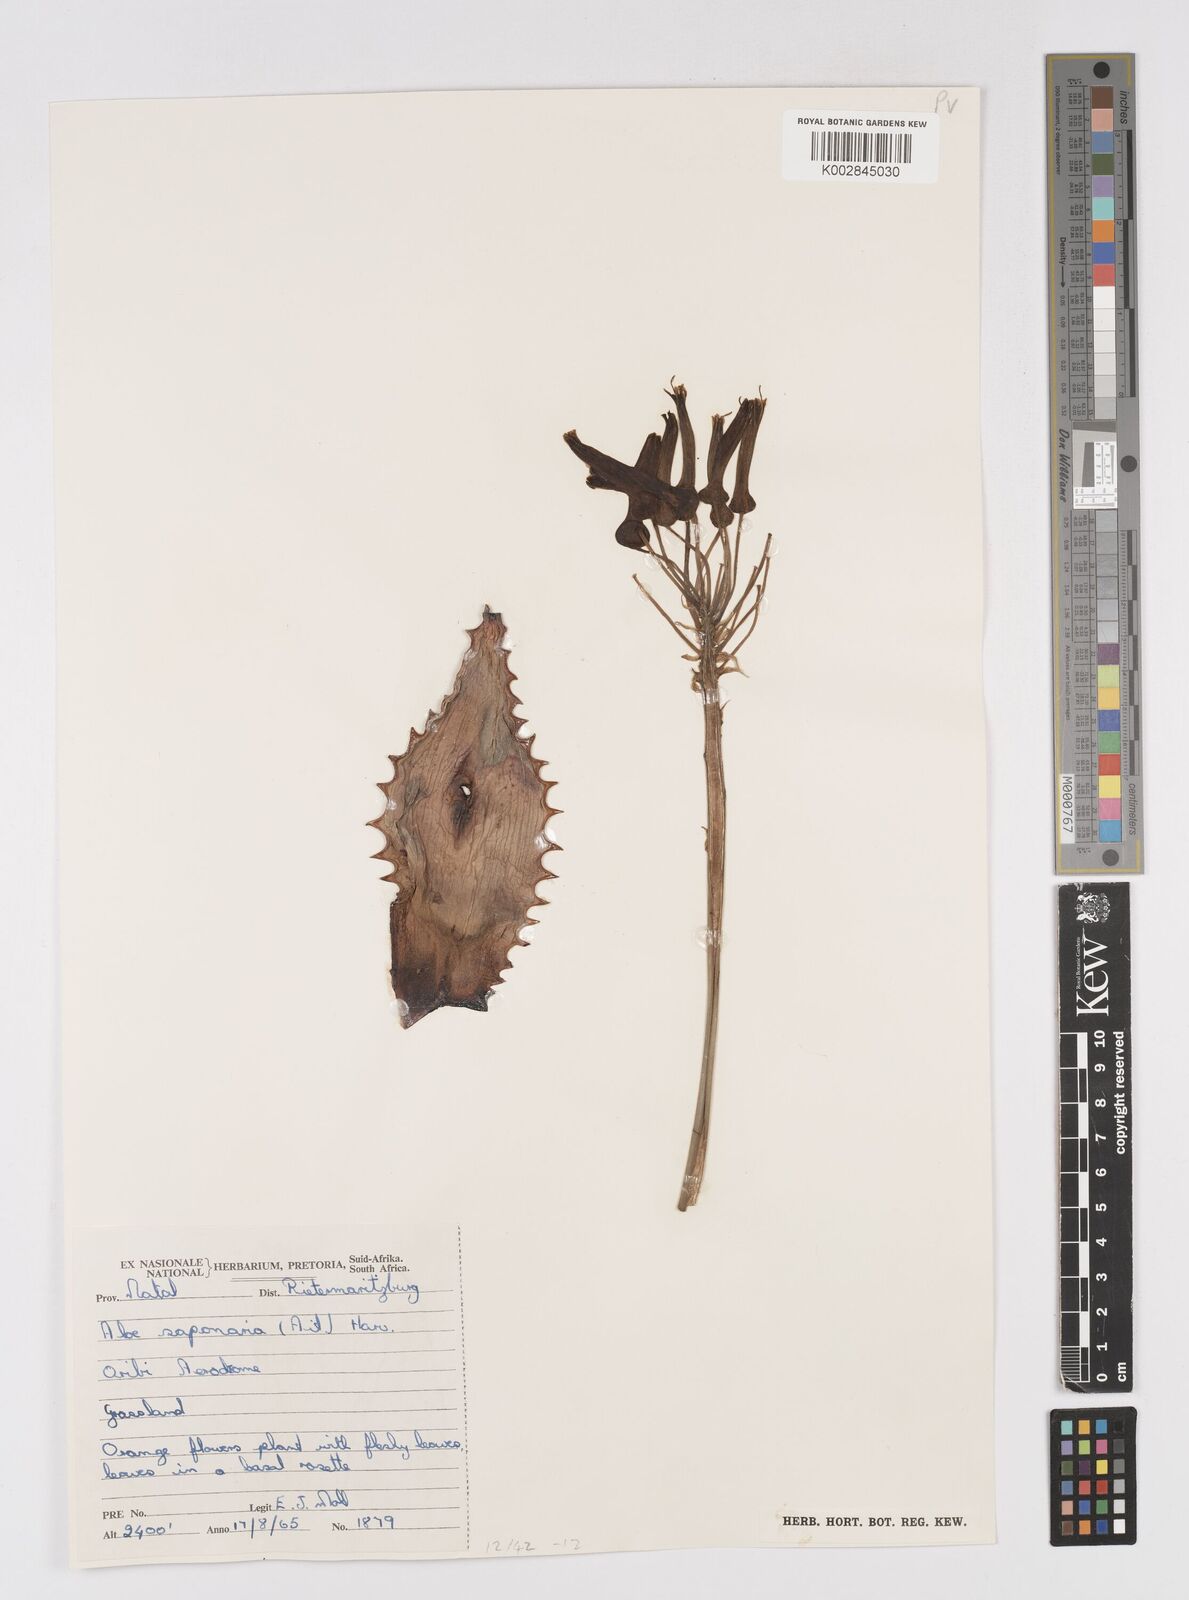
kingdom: Plantae
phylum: Tracheophyta
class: Liliopsida
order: Asparagales
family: Asphodelaceae
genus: Aloe
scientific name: Aloe maculata
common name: Broadleaf aloe
